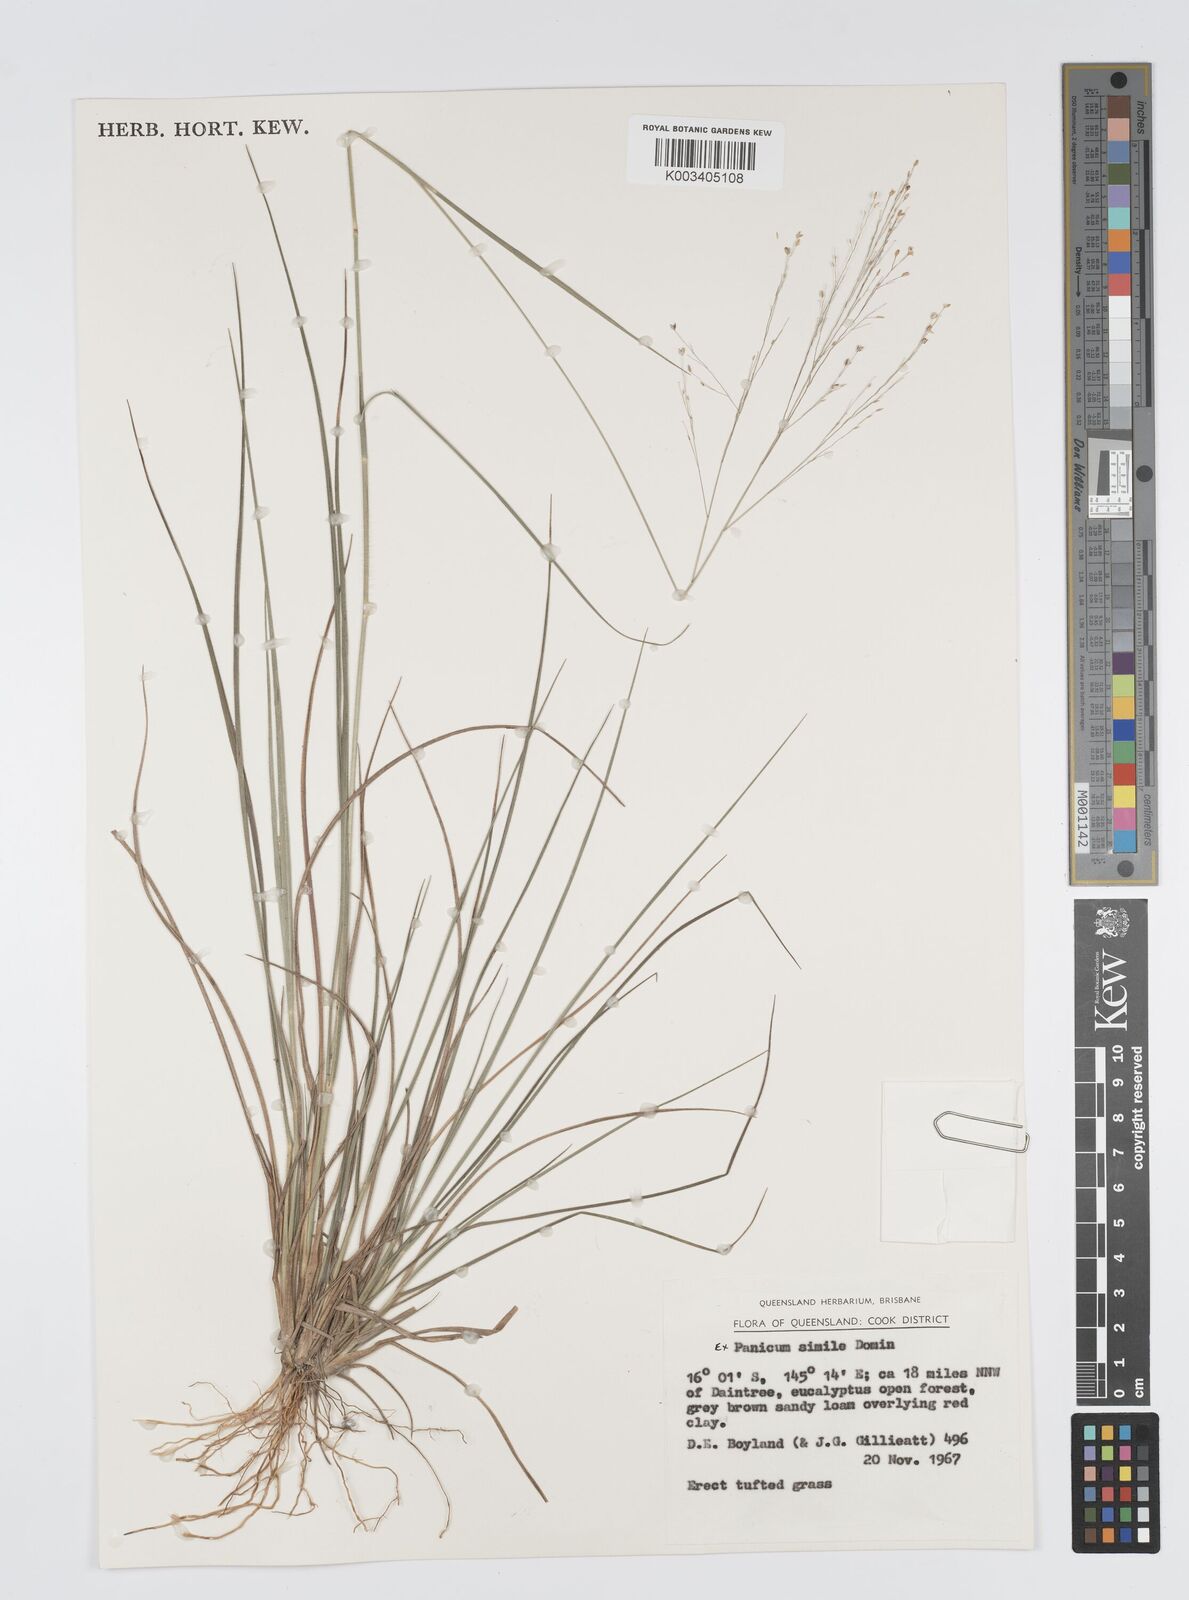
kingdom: Plantae
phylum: Tracheophyta
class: Liliopsida
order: Poales
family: Poaceae
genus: Panicum
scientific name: Panicum simile
